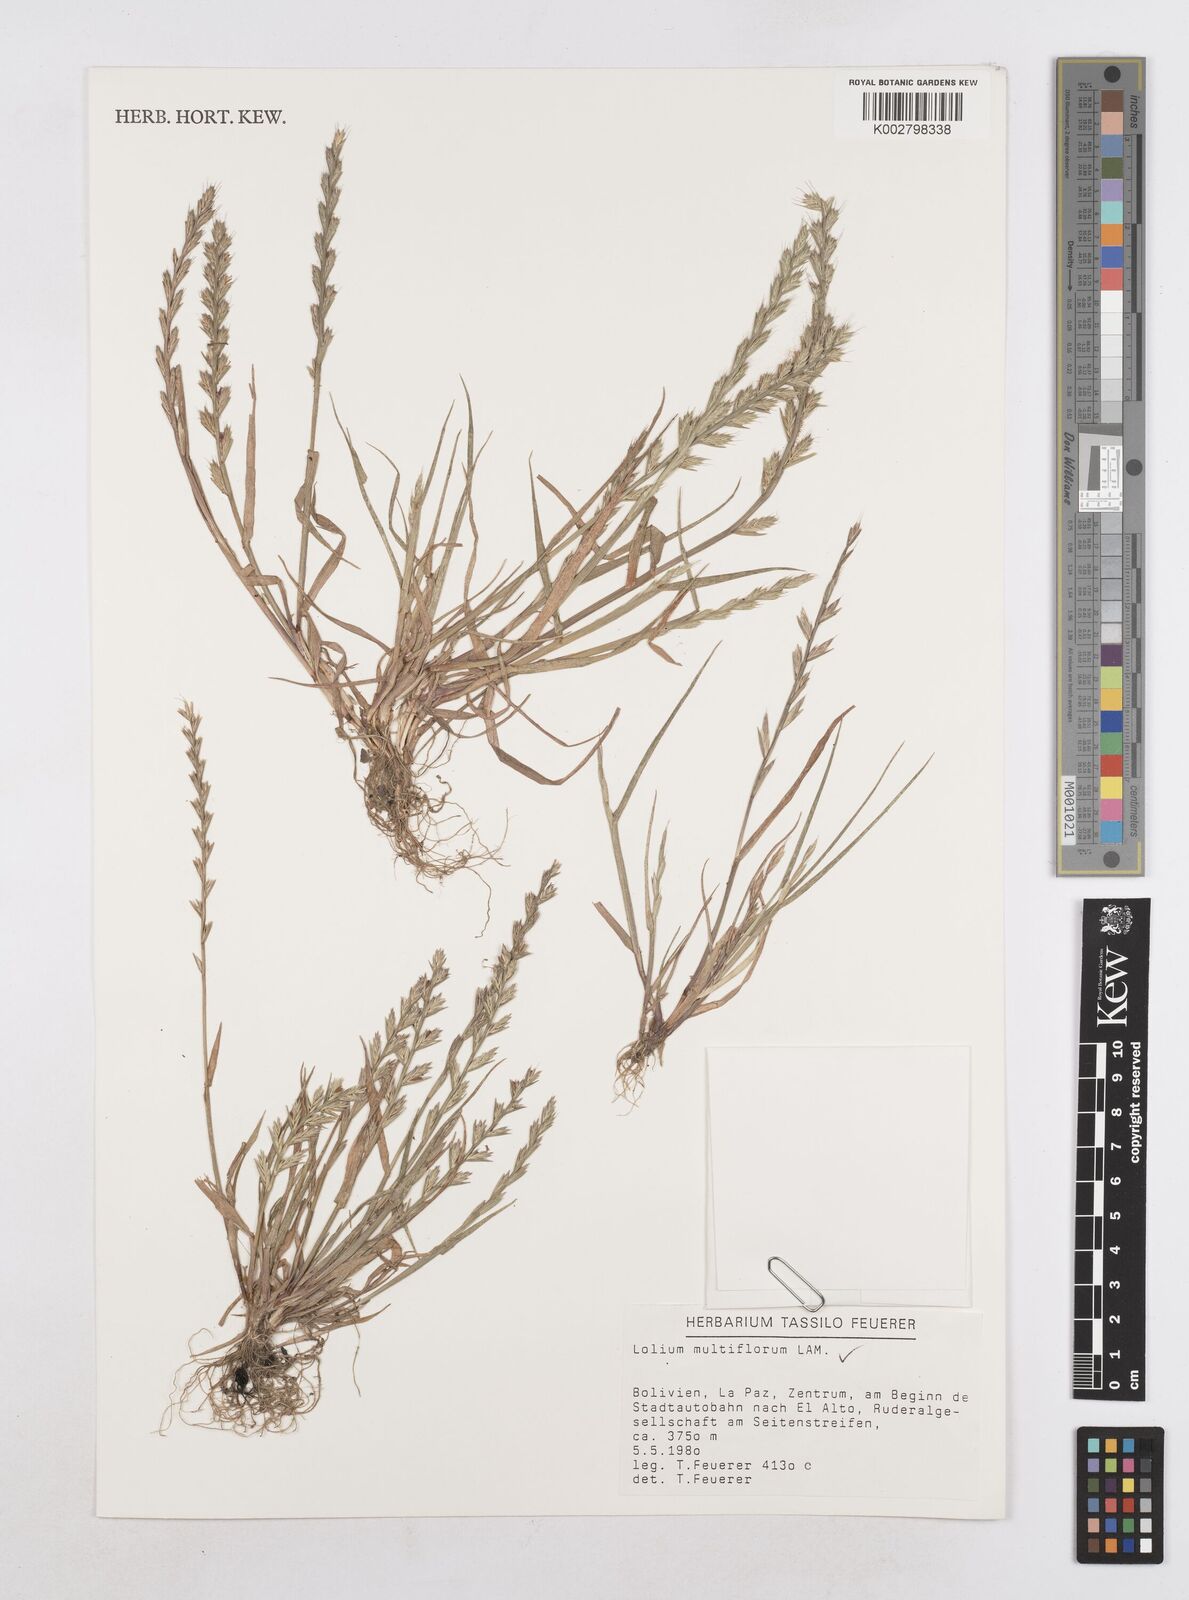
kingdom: Plantae
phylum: Tracheophyta
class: Liliopsida
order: Poales
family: Poaceae
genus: Lolium
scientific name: Lolium multiflorum
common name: Annual ryegrass
